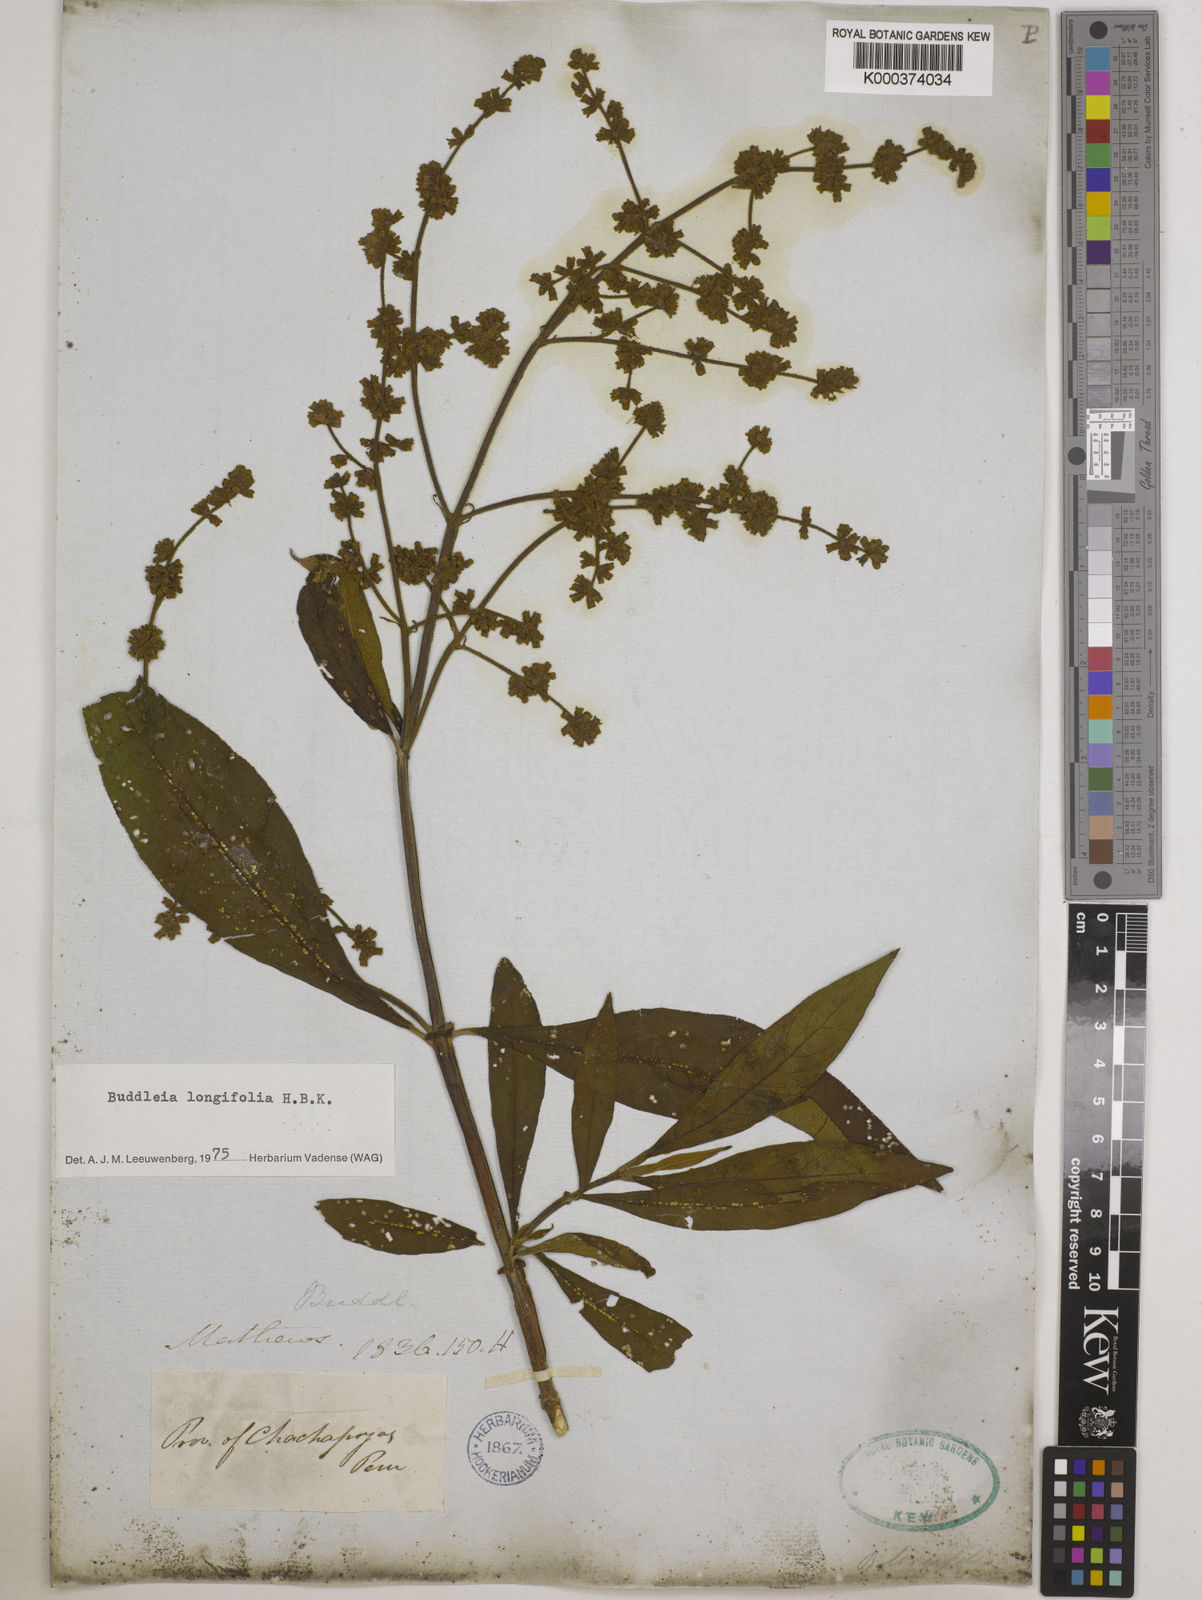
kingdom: Plantae
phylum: Tracheophyta
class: Magnoliopsida
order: Lamiales
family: Scrophulariaceae
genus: Buddleja
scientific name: Buddleja
